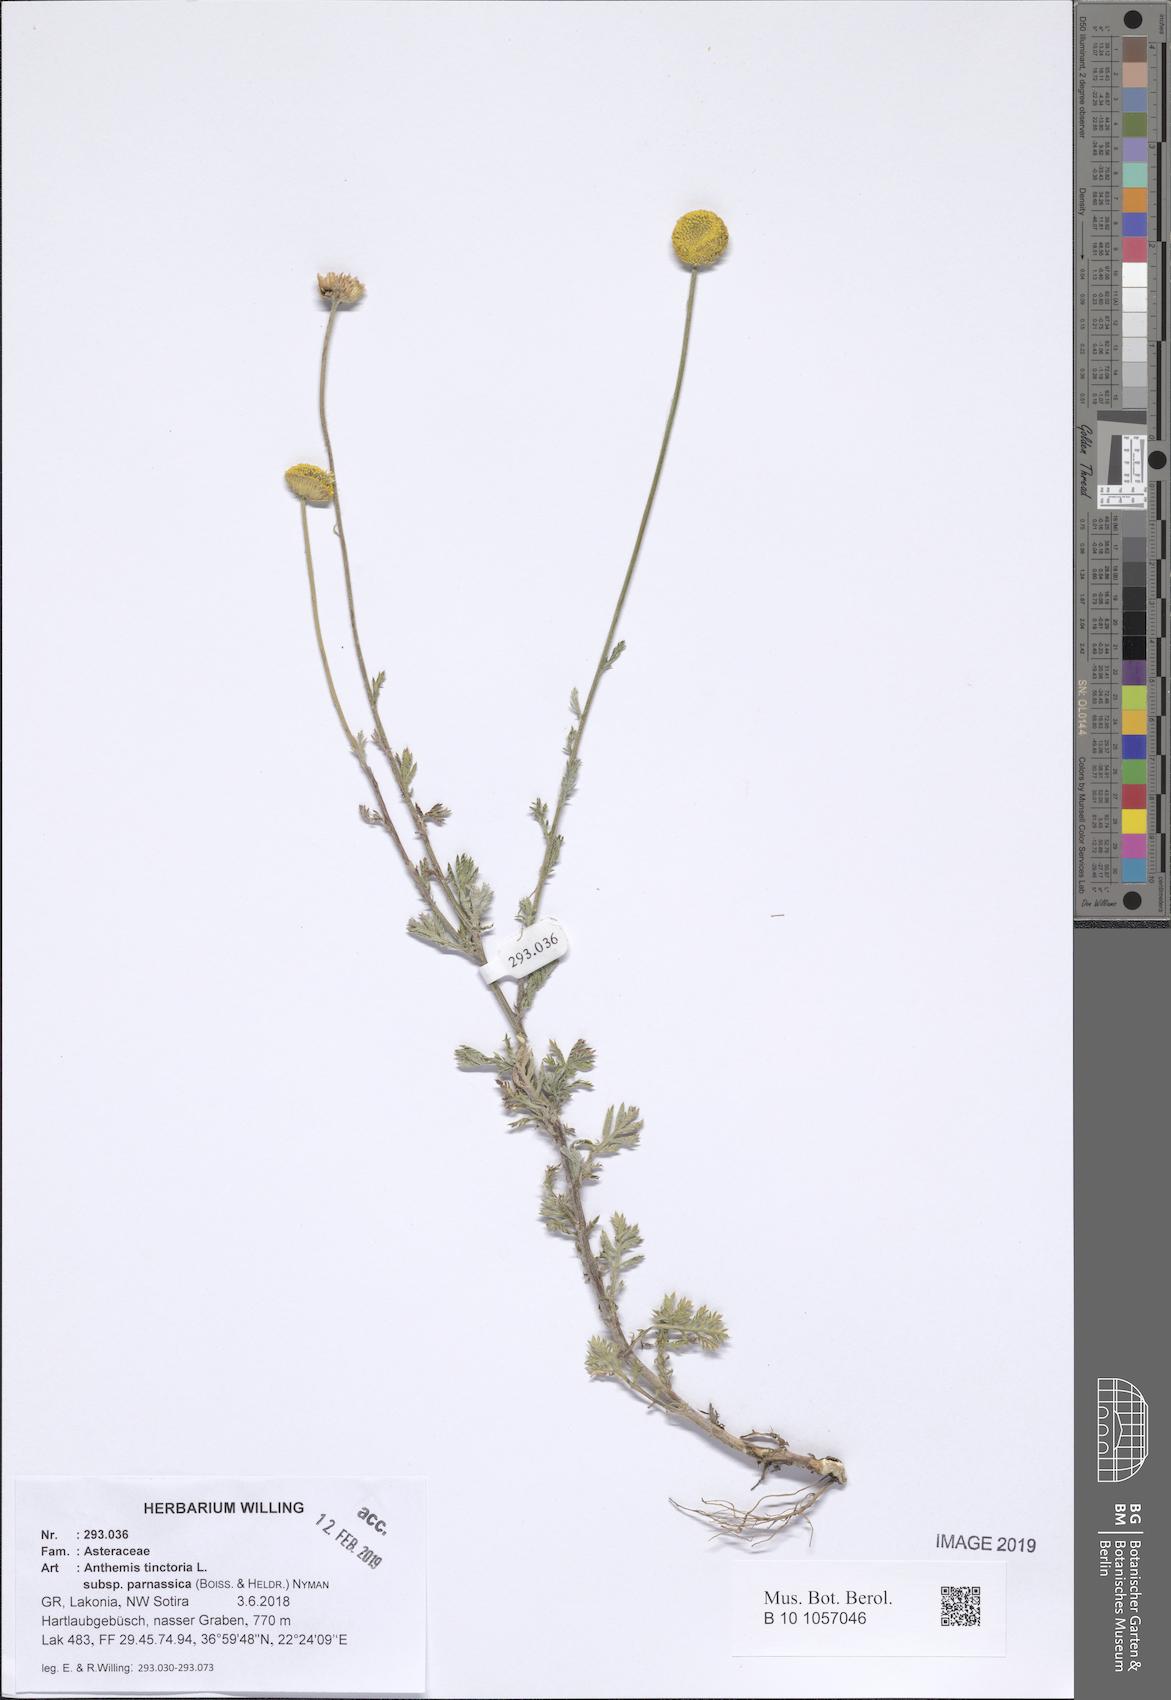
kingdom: Plantae
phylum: Tracheophyta
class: Magnoliopsida
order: Asterales
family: Asteraceae
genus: Cota
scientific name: Cota tinctoria
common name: Golden chamomile
